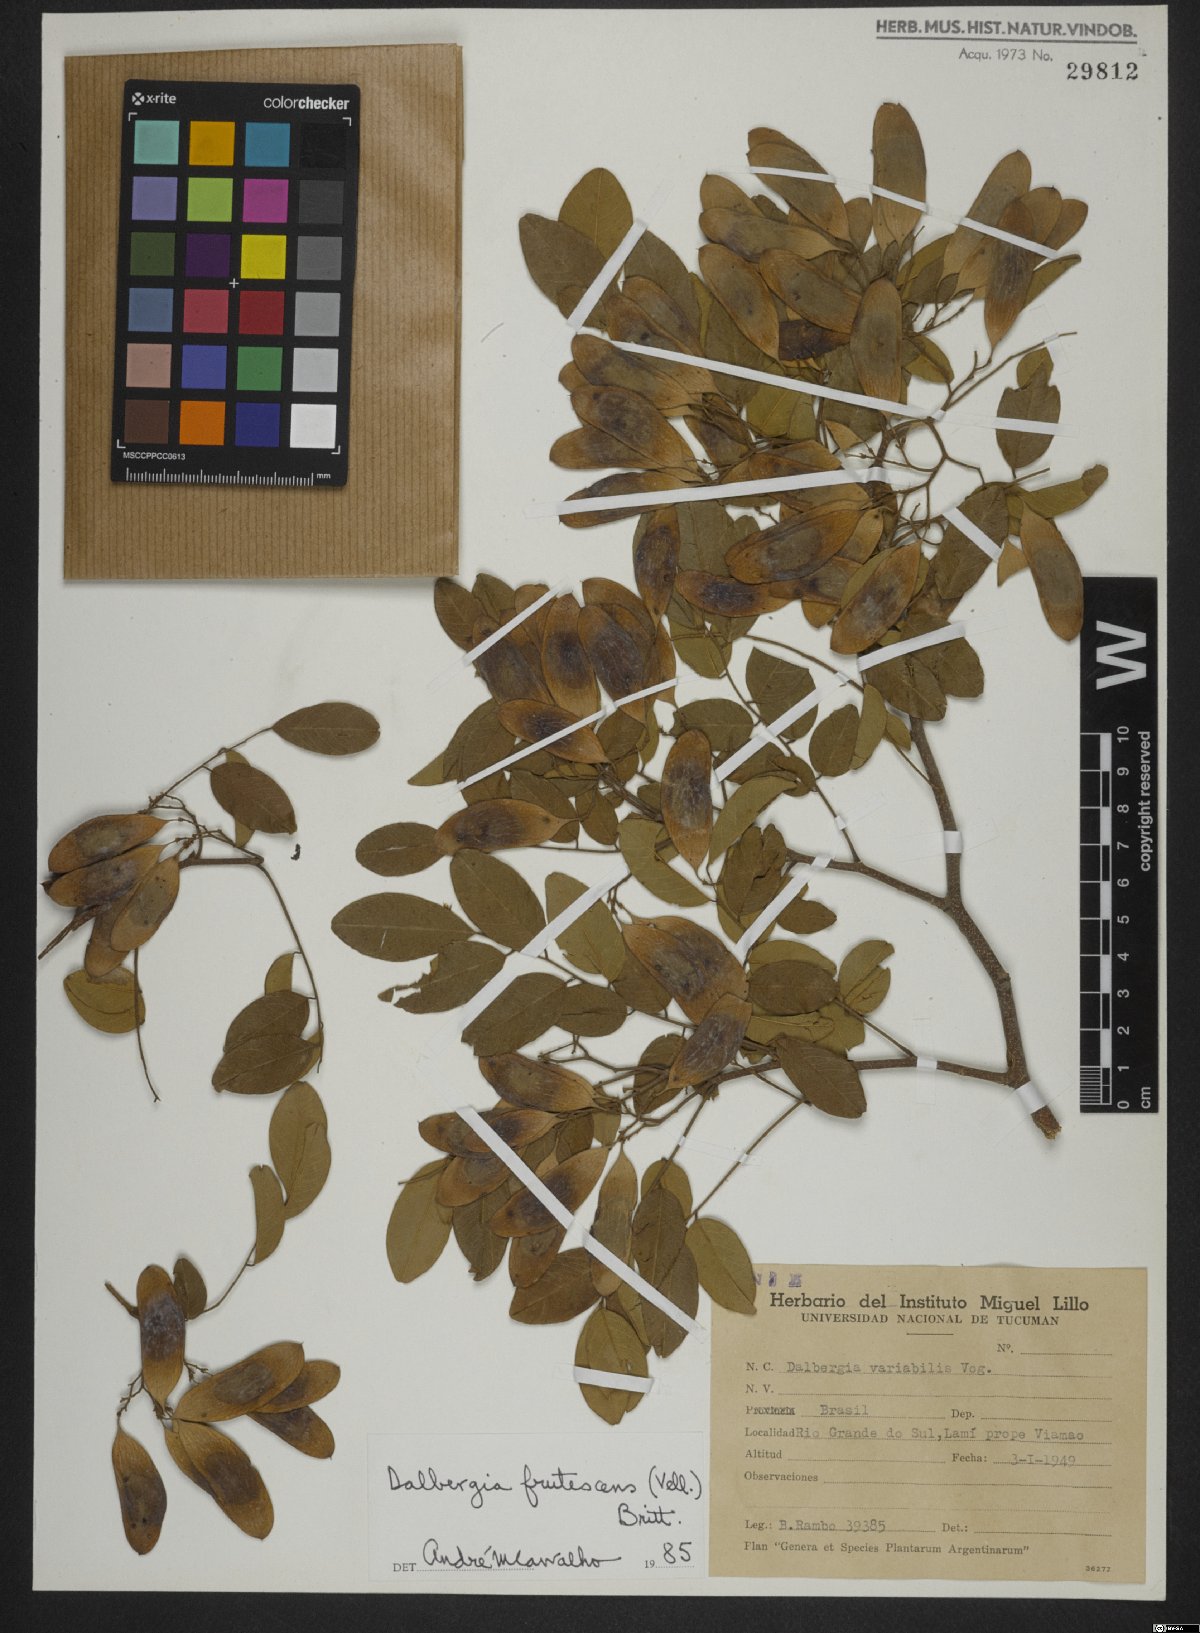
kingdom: Plantae
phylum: Tracheophyta
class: Magnoliopsida
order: Fabales
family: Fabaceae
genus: Dalbergia
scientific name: Dalbergia frutescens
